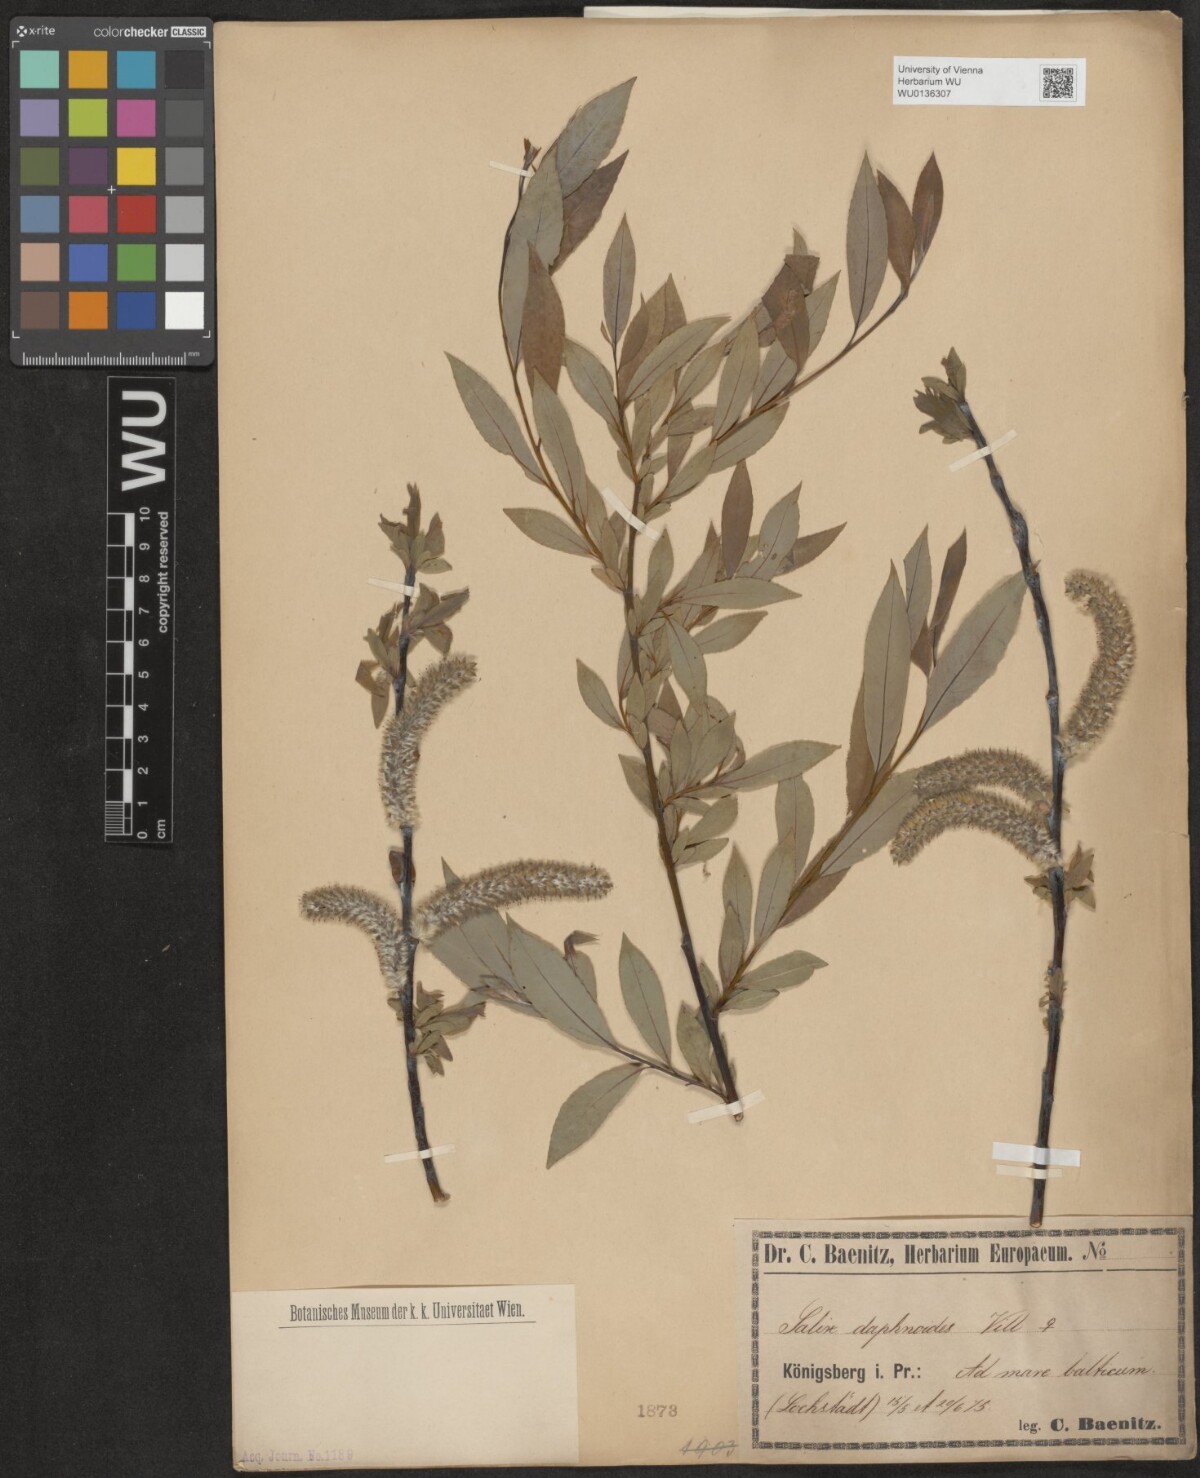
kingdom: Plantae
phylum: Tracheophyta
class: Magnoliopsida
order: Malpighiales
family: Salicaceae
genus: Salix
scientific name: Salix daphnoides
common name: European violet-willow
